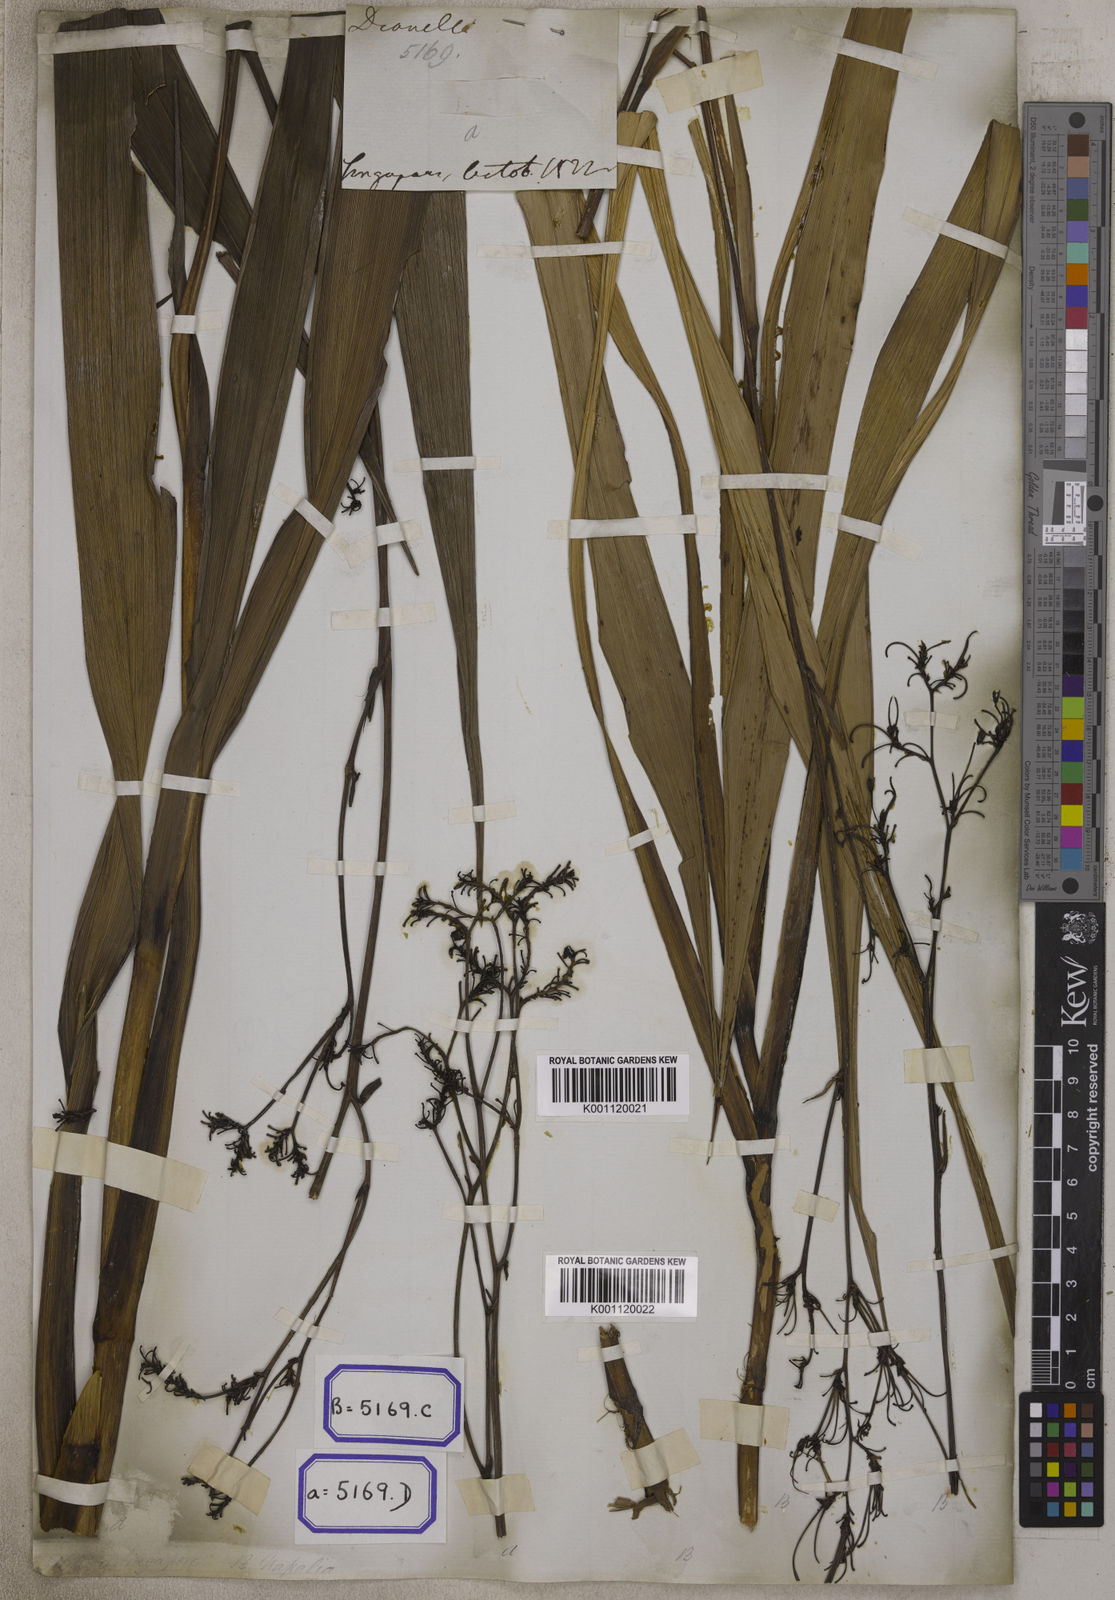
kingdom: Plantae
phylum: Tracheophyta
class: Liliopsida
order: Asparagales
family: Asphodelaceae
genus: Dianella
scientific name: Dianella ensifolia
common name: New zealand lilyplant
